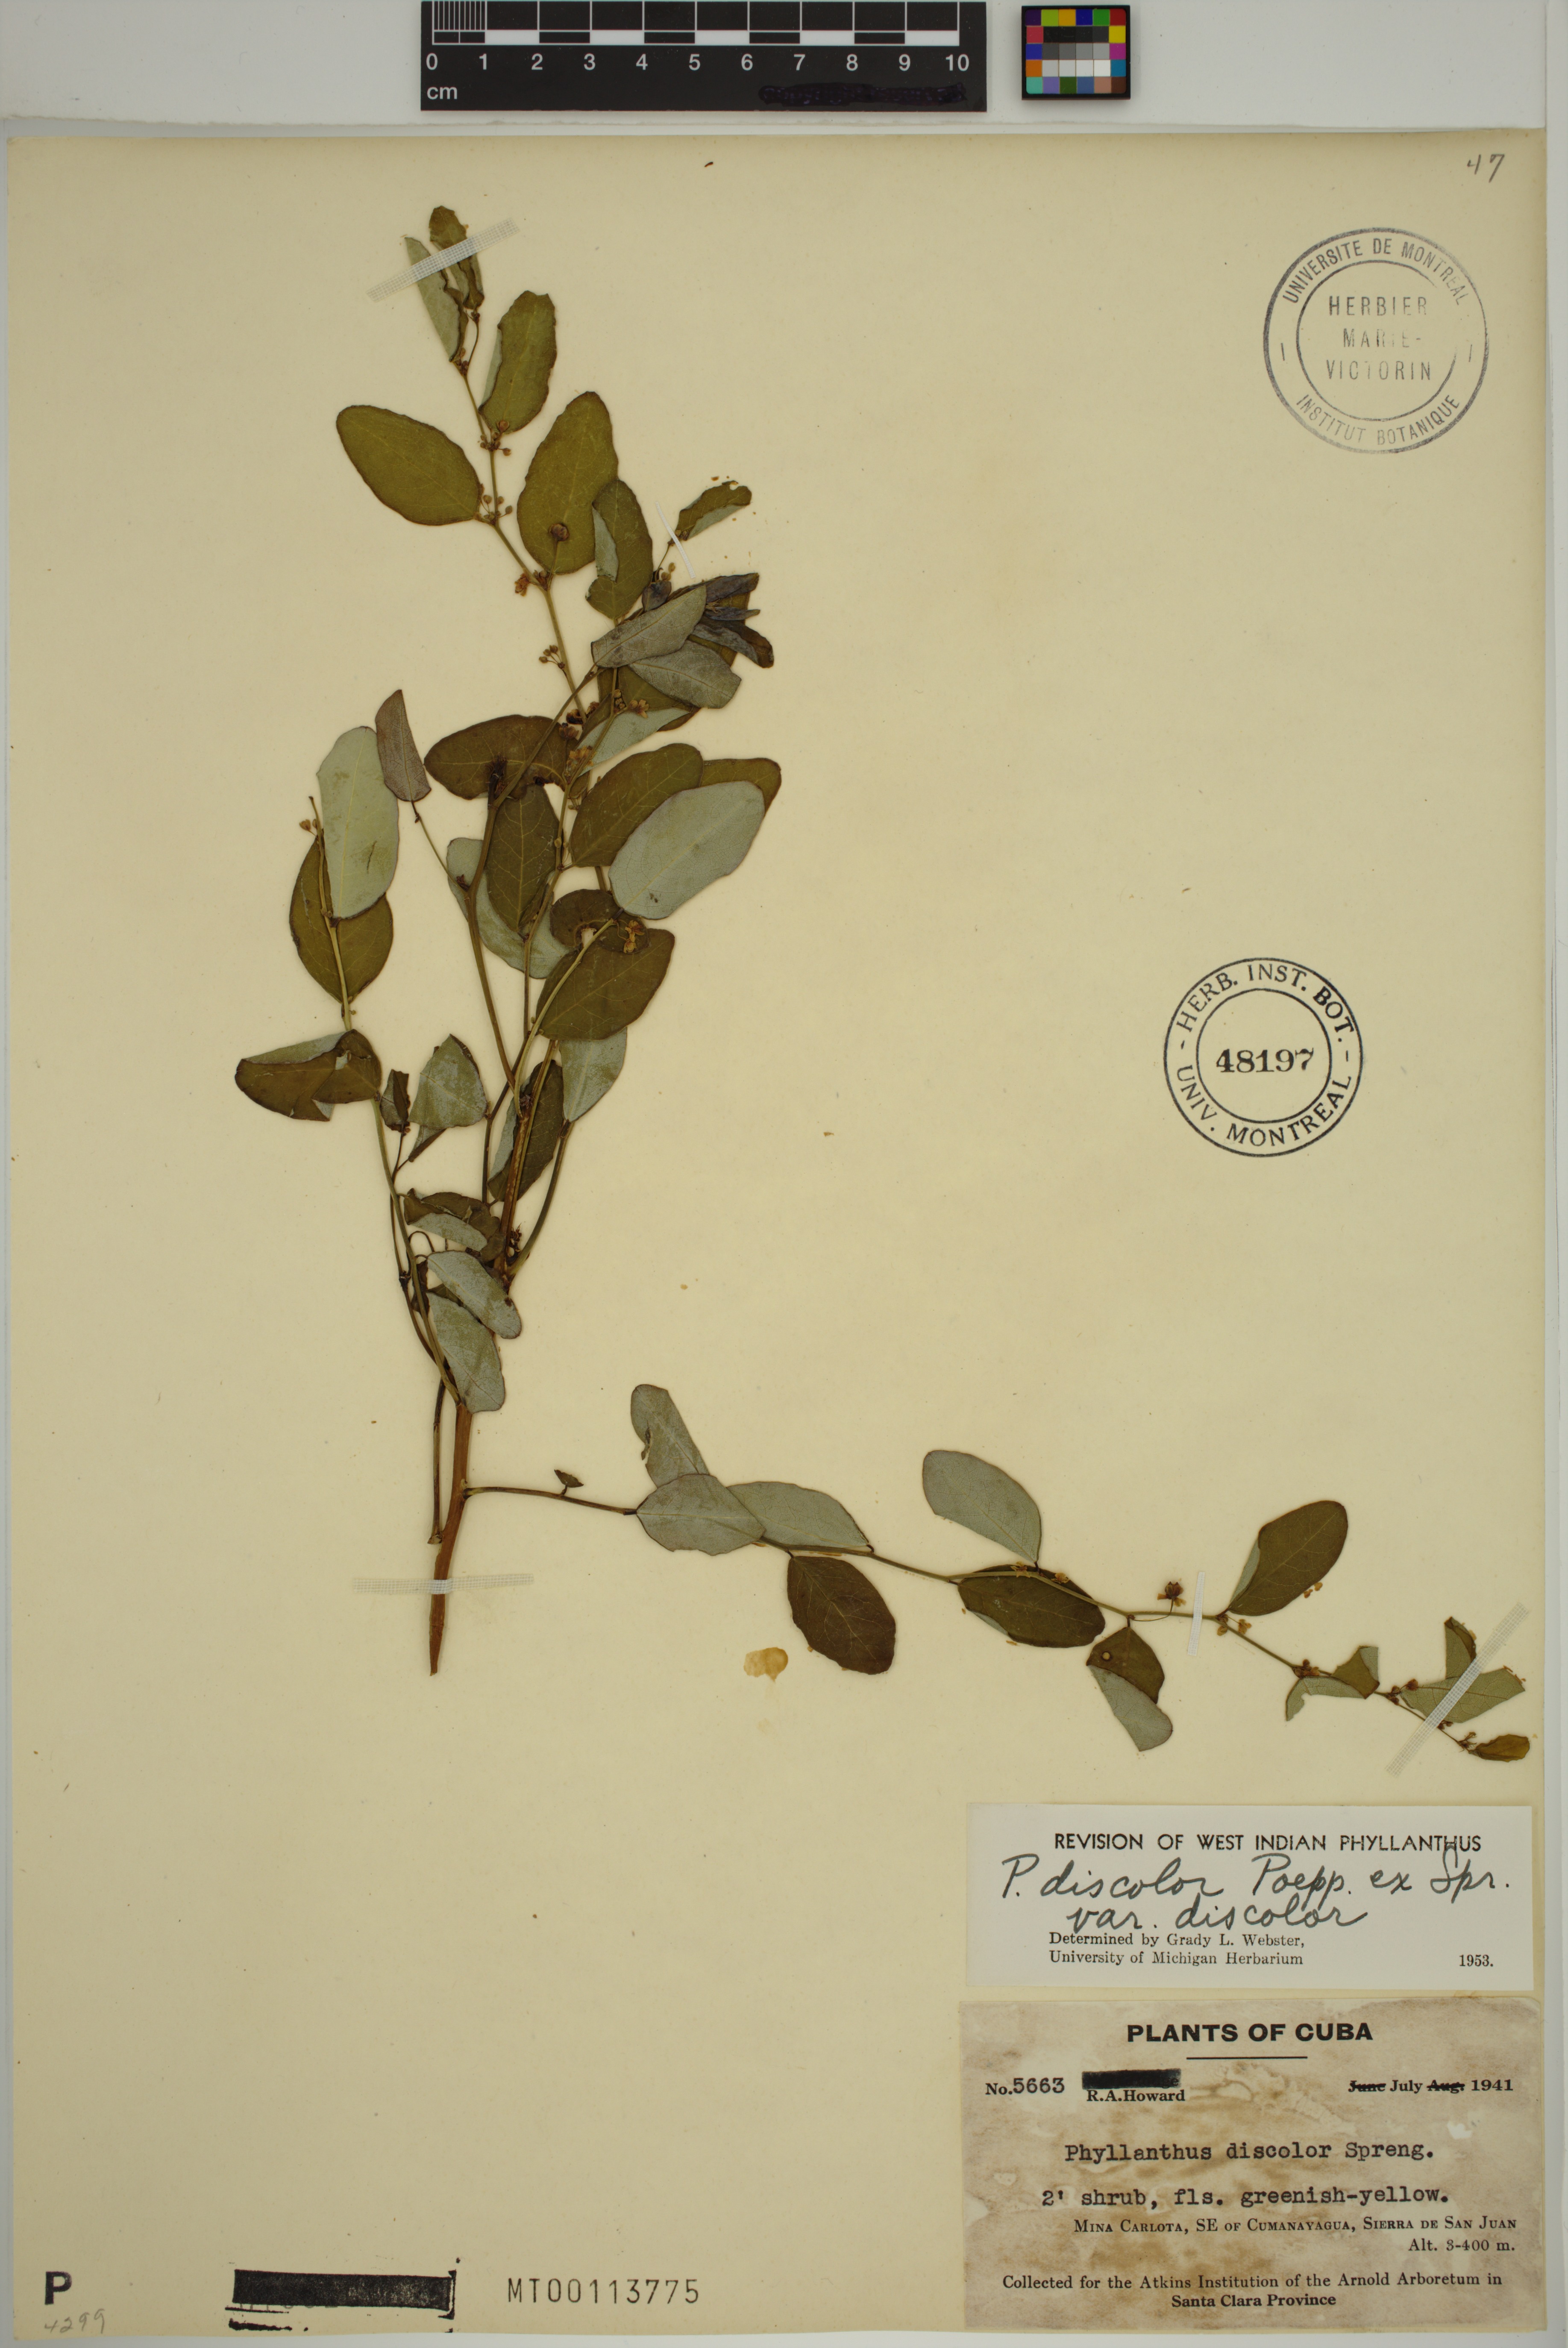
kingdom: Plantae
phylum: Tracheophyta
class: Magnoliopsida
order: Malpighiales
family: Phyllanthaceae
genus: Phyllanthus
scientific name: Phyllanthus discolor
